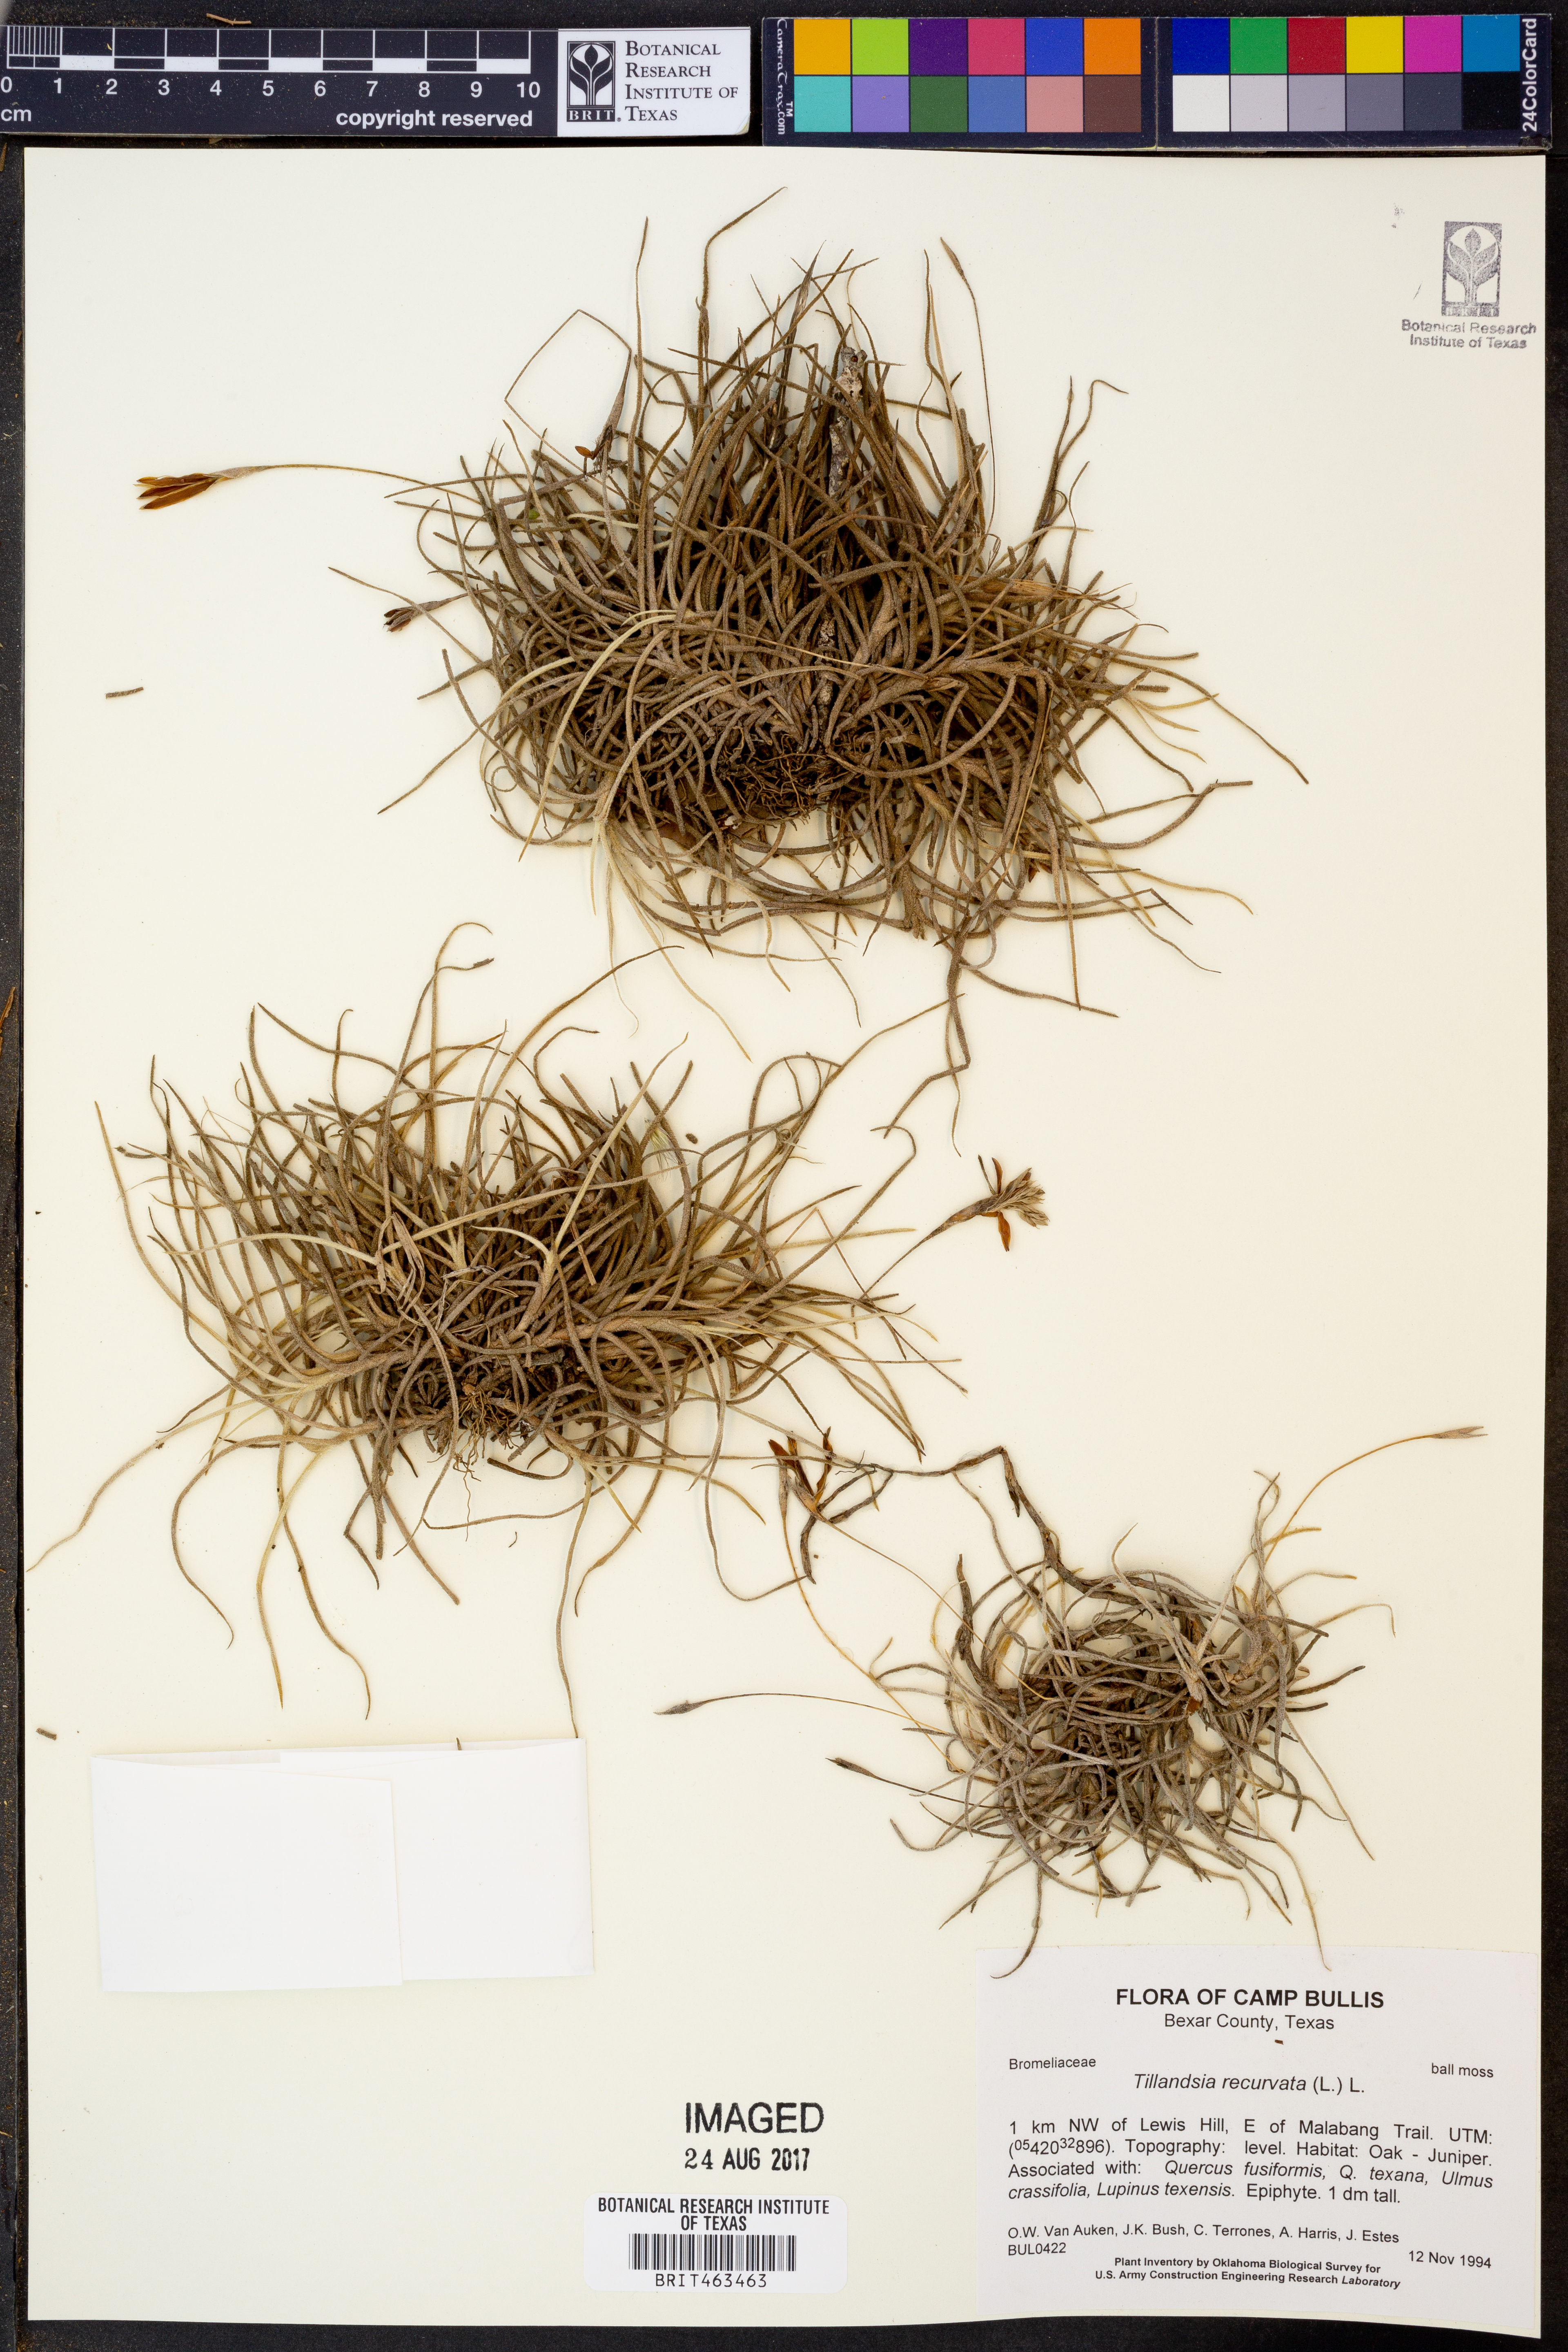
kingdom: Plantae
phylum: Tracheophyta
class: Liliopsida
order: Poales
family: Bromeliaceae
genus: Tillandsia
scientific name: Tillandsia recurvata
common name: Small ballmoss
